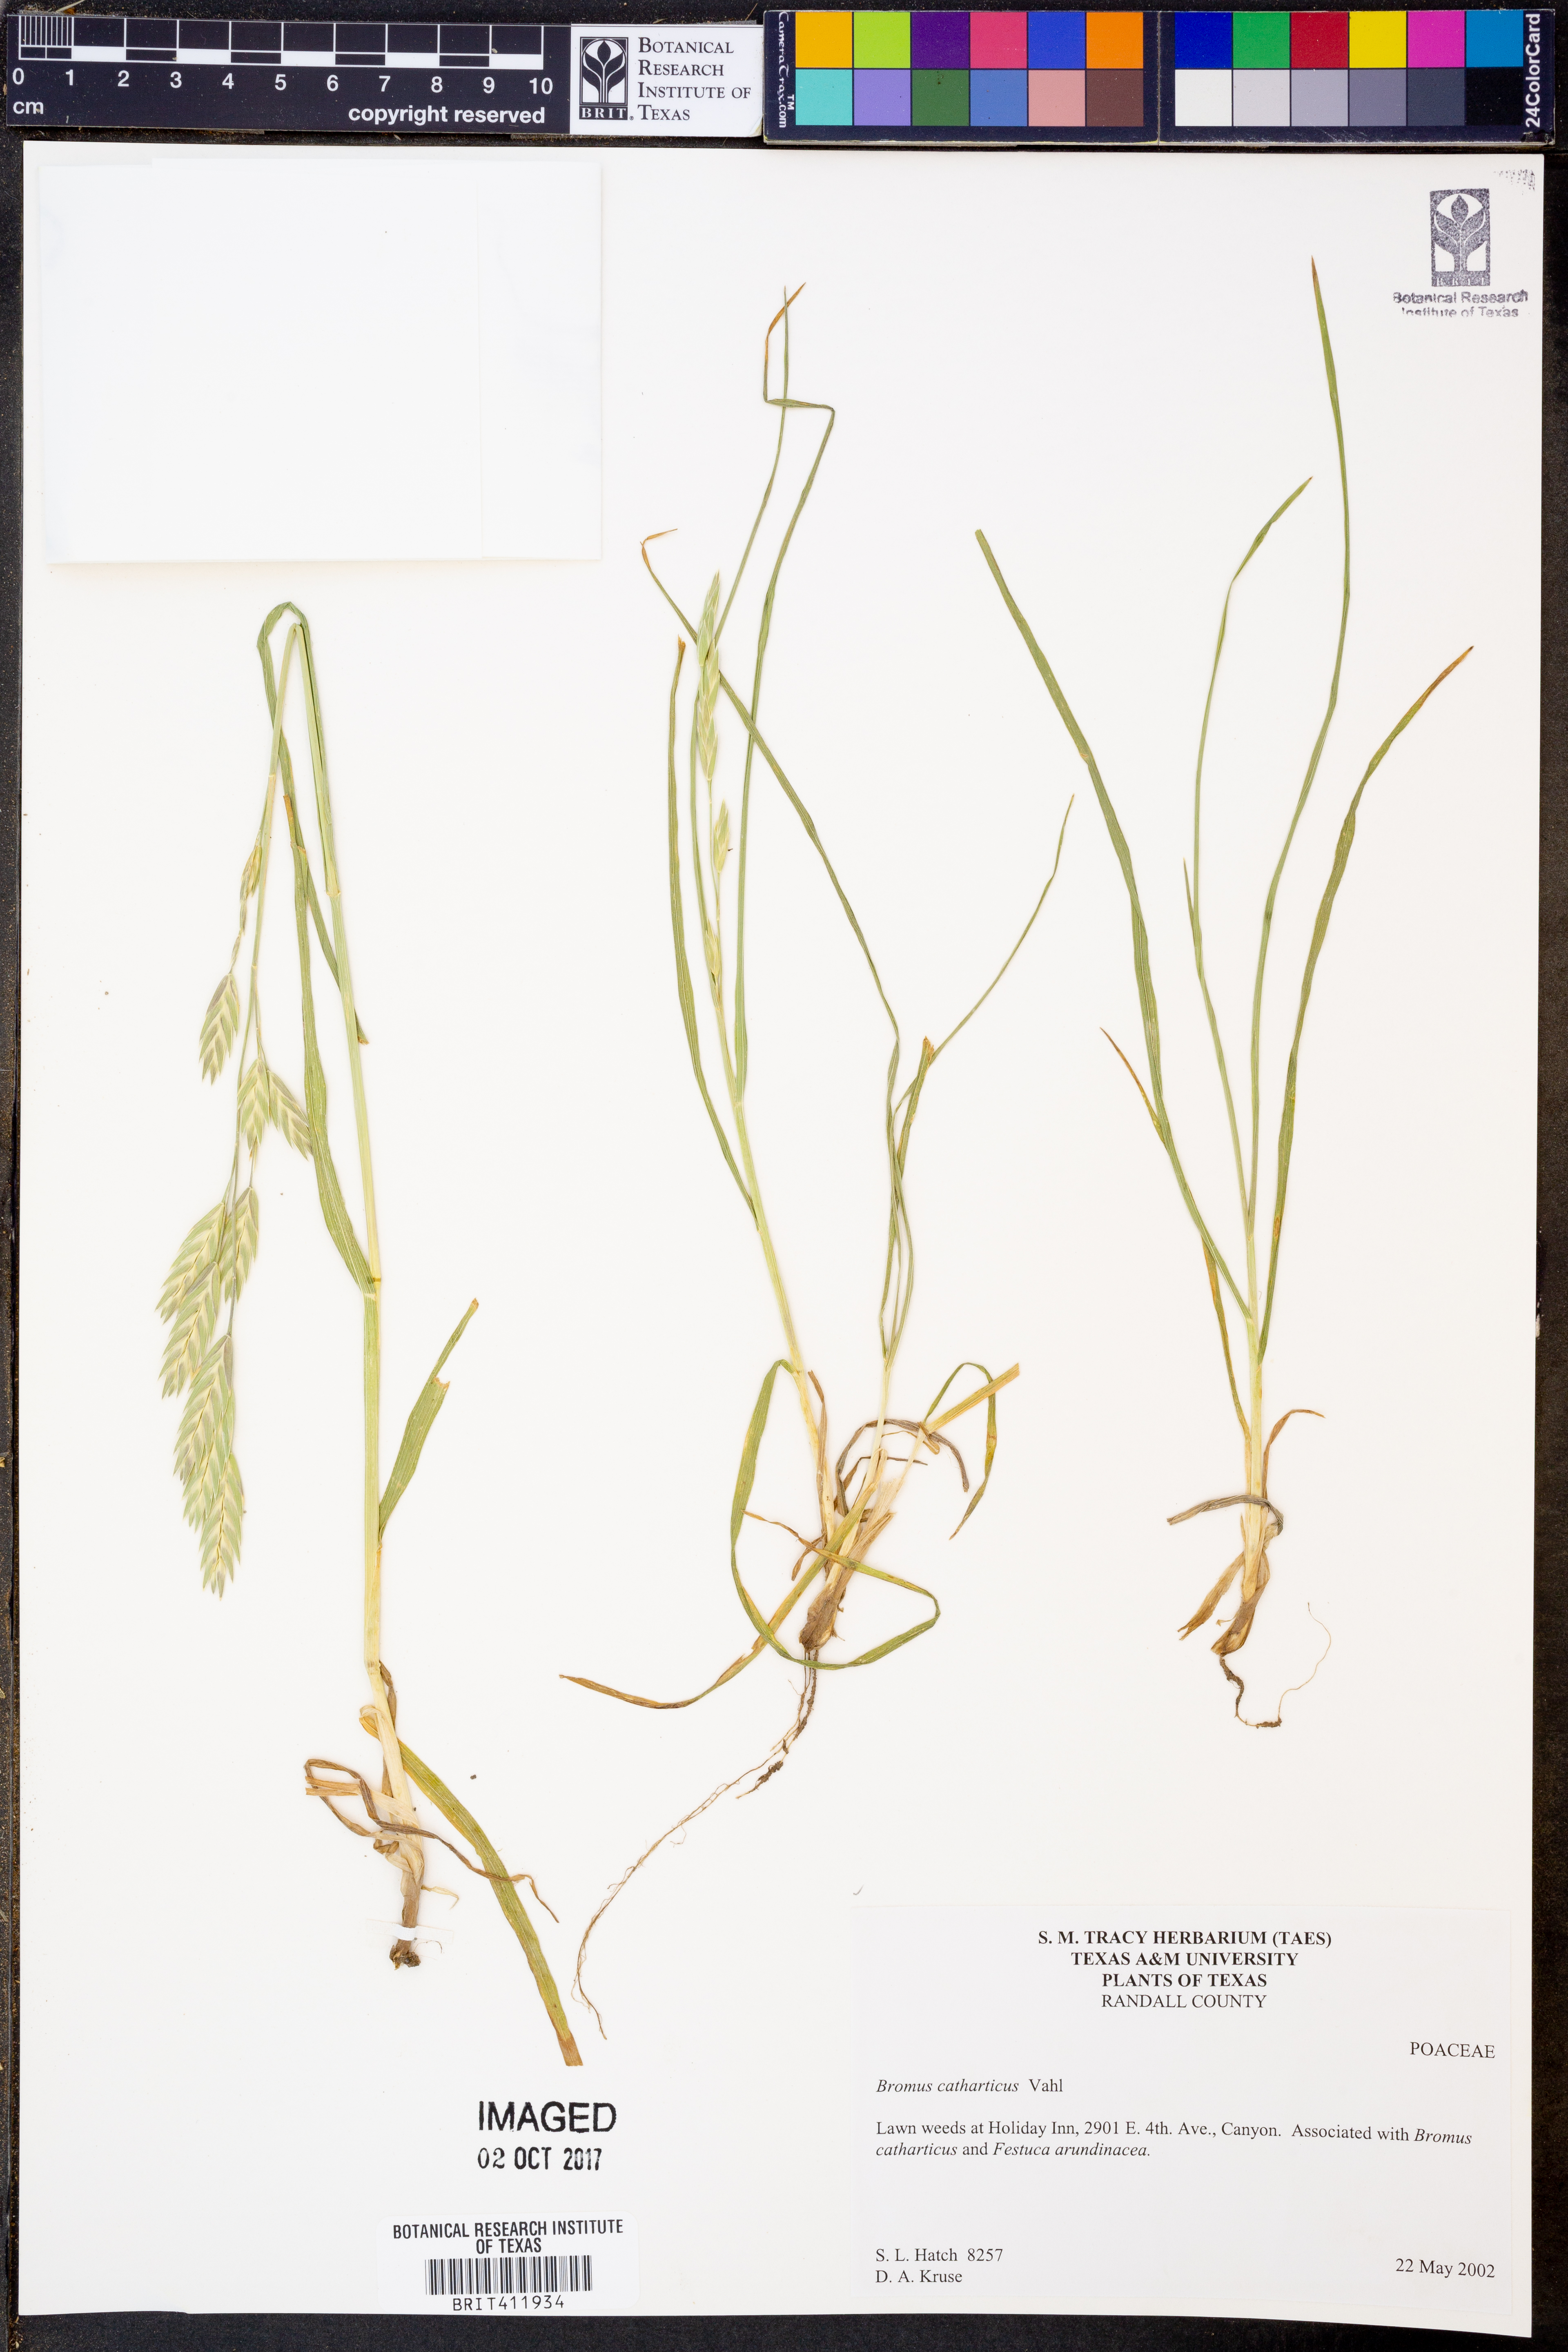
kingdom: Plantae
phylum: Tracheophyta
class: Liliopsida
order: Poales
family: Poaceae
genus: Bromus
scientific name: Bromus catharticus
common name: Rescuegrass
